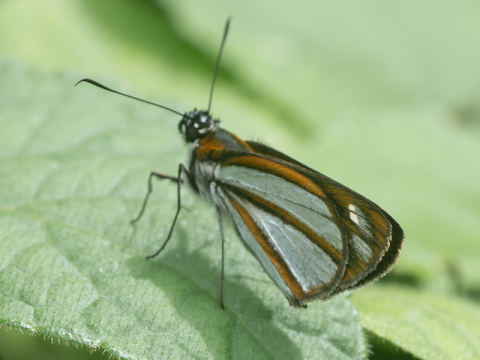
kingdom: Animalia
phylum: Arthropoda
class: Insecta
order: Lepidoptera
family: Hesperiidae
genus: Vettius
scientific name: Vettius coryna
